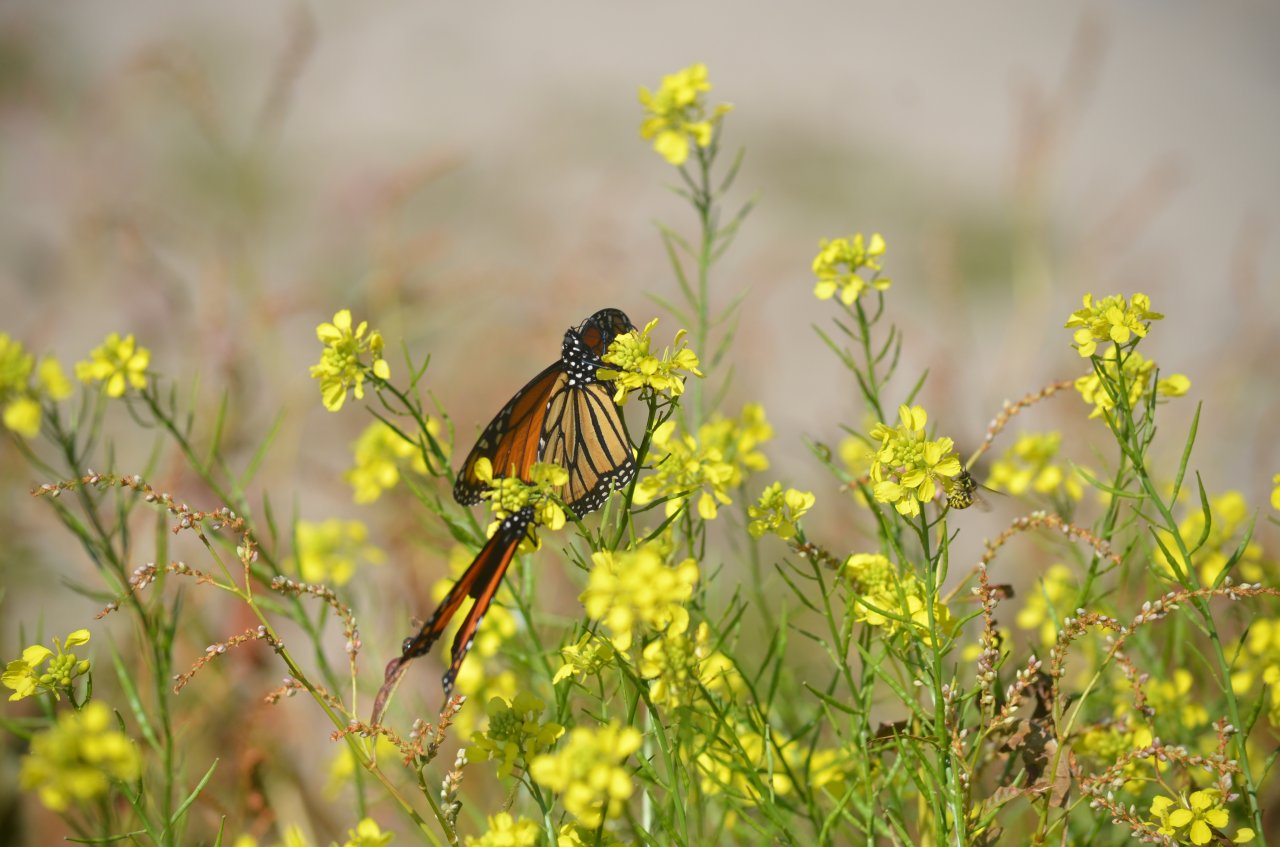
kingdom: Animalia
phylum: Arthropoda
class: Insecta
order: Lepidoptera
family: Nymphalidae
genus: Danaus
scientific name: Danaus plexippus
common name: Monarch
